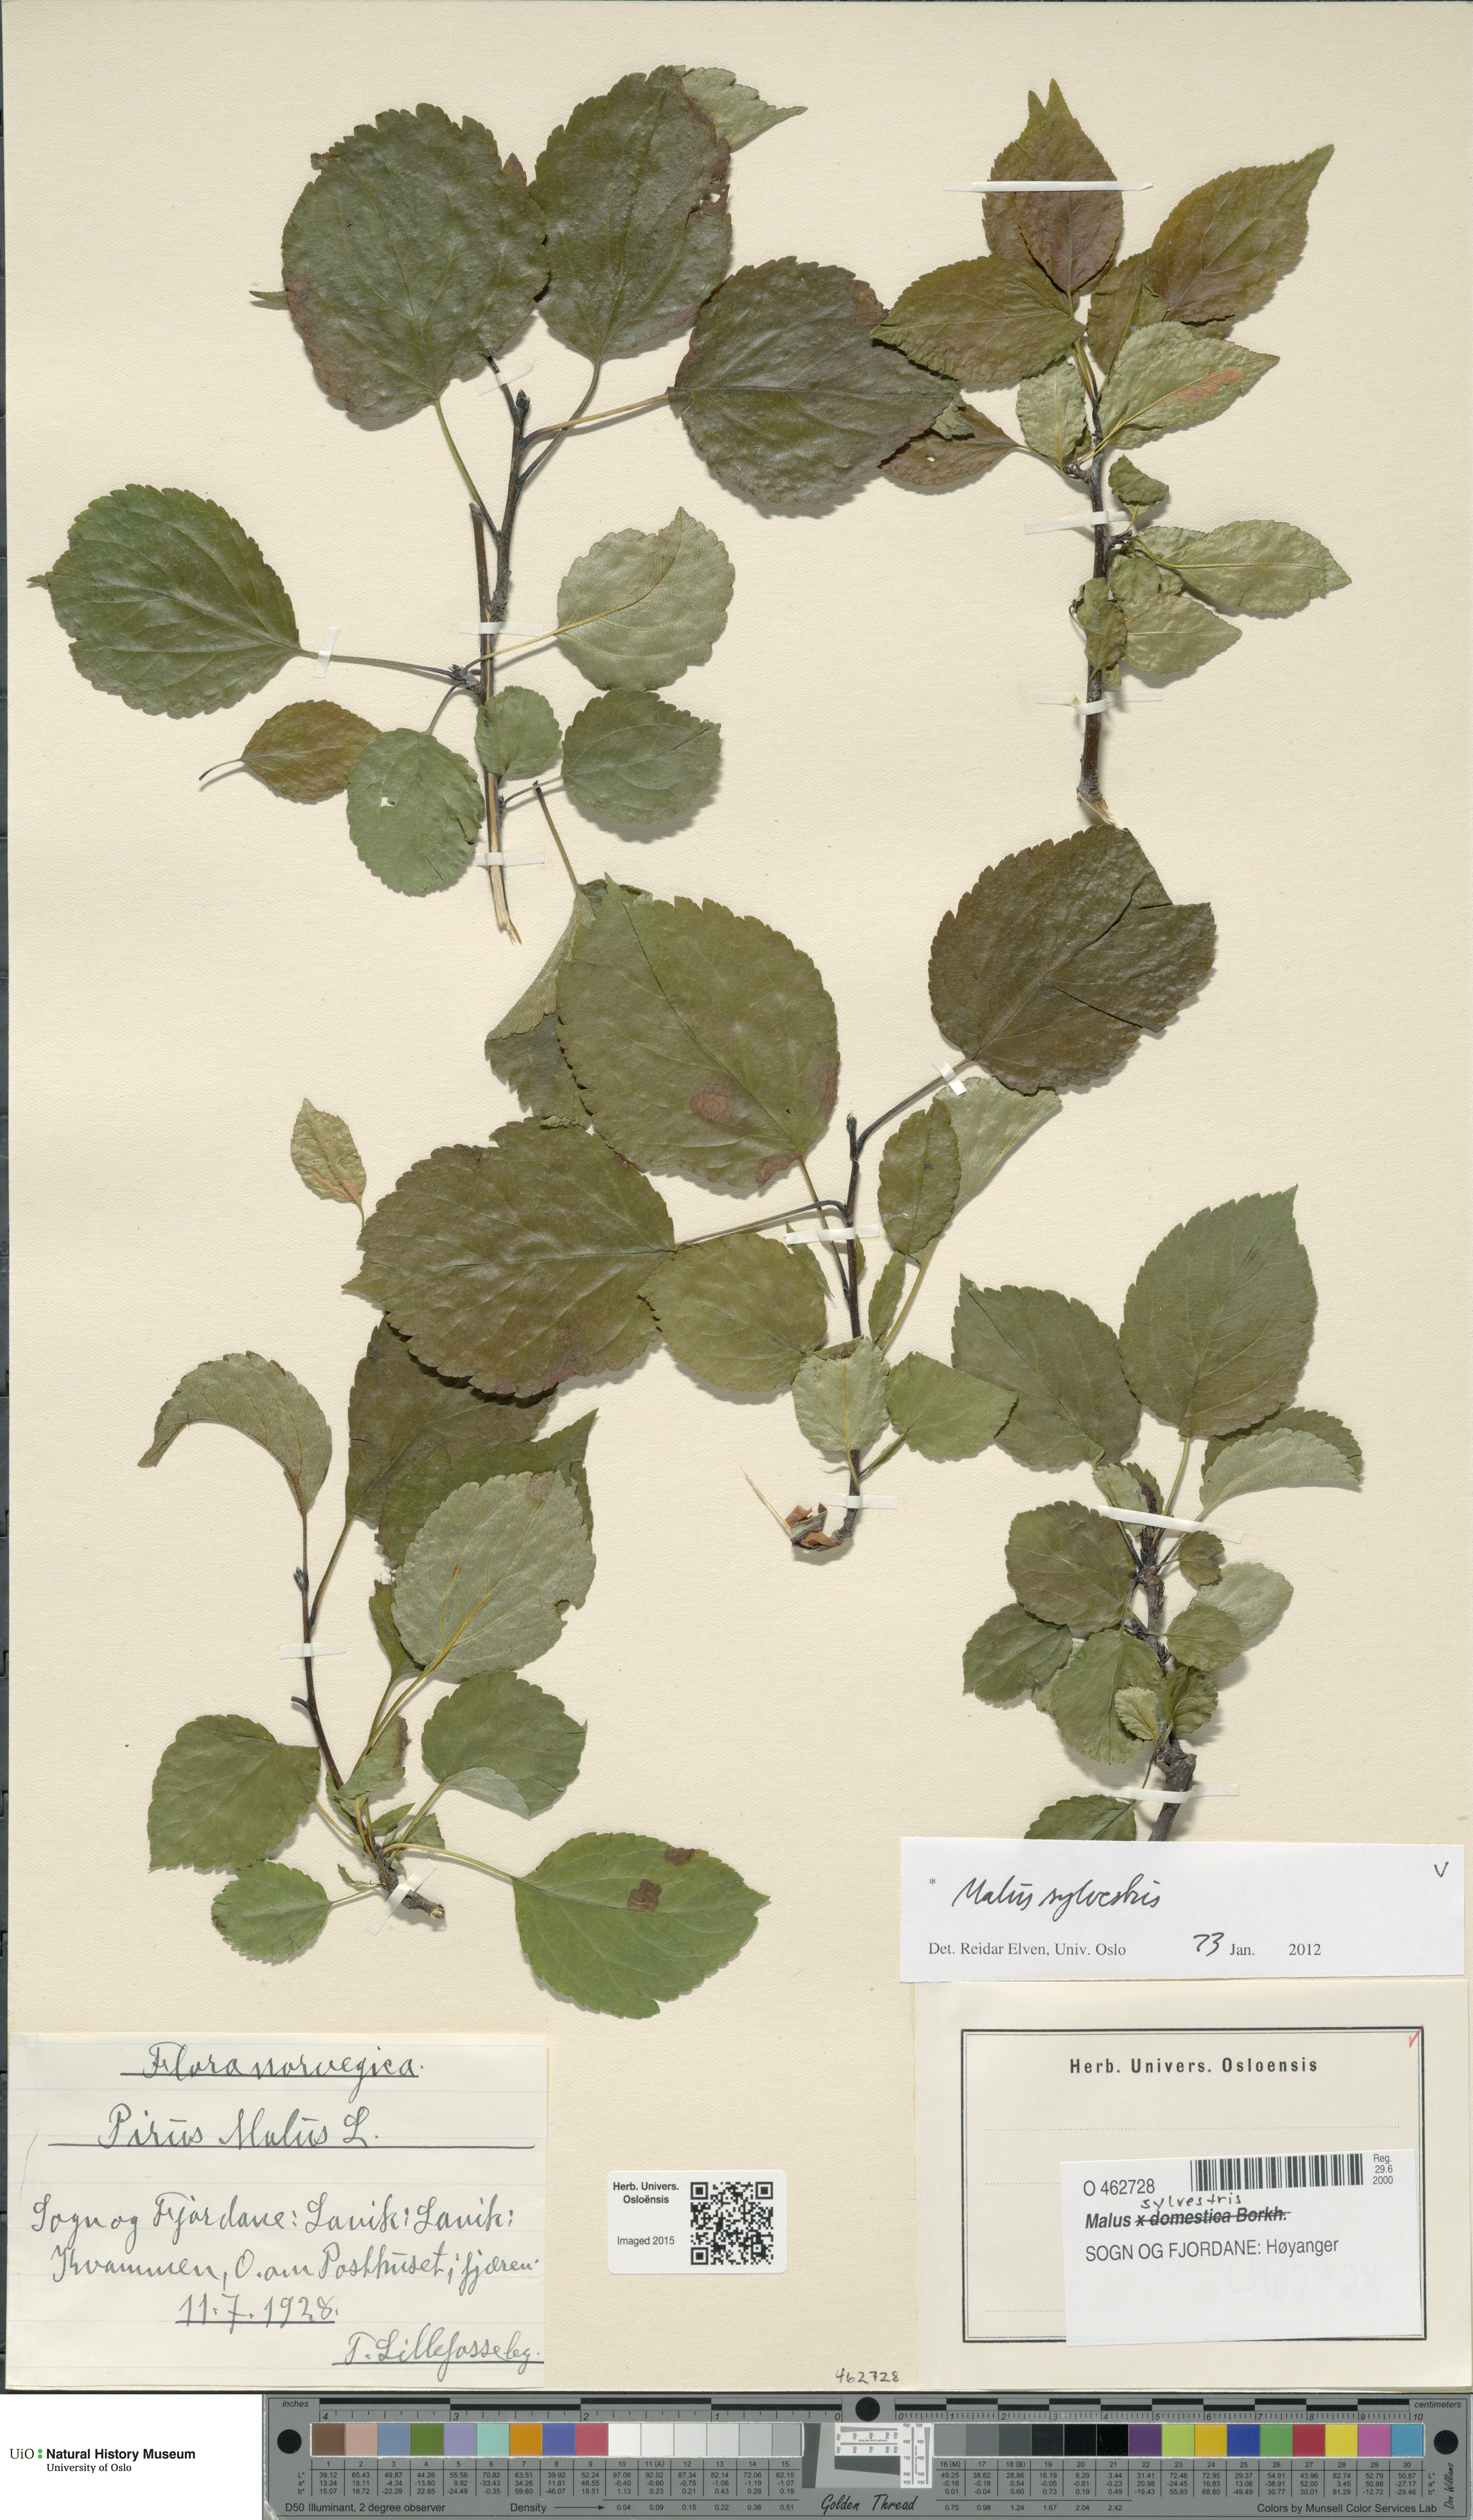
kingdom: Plantae
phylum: Tracheophyta
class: Magnoliopsida
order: Rosales
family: Rosaceae
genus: Malus
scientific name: Malus sylvestris
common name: Crab apple
